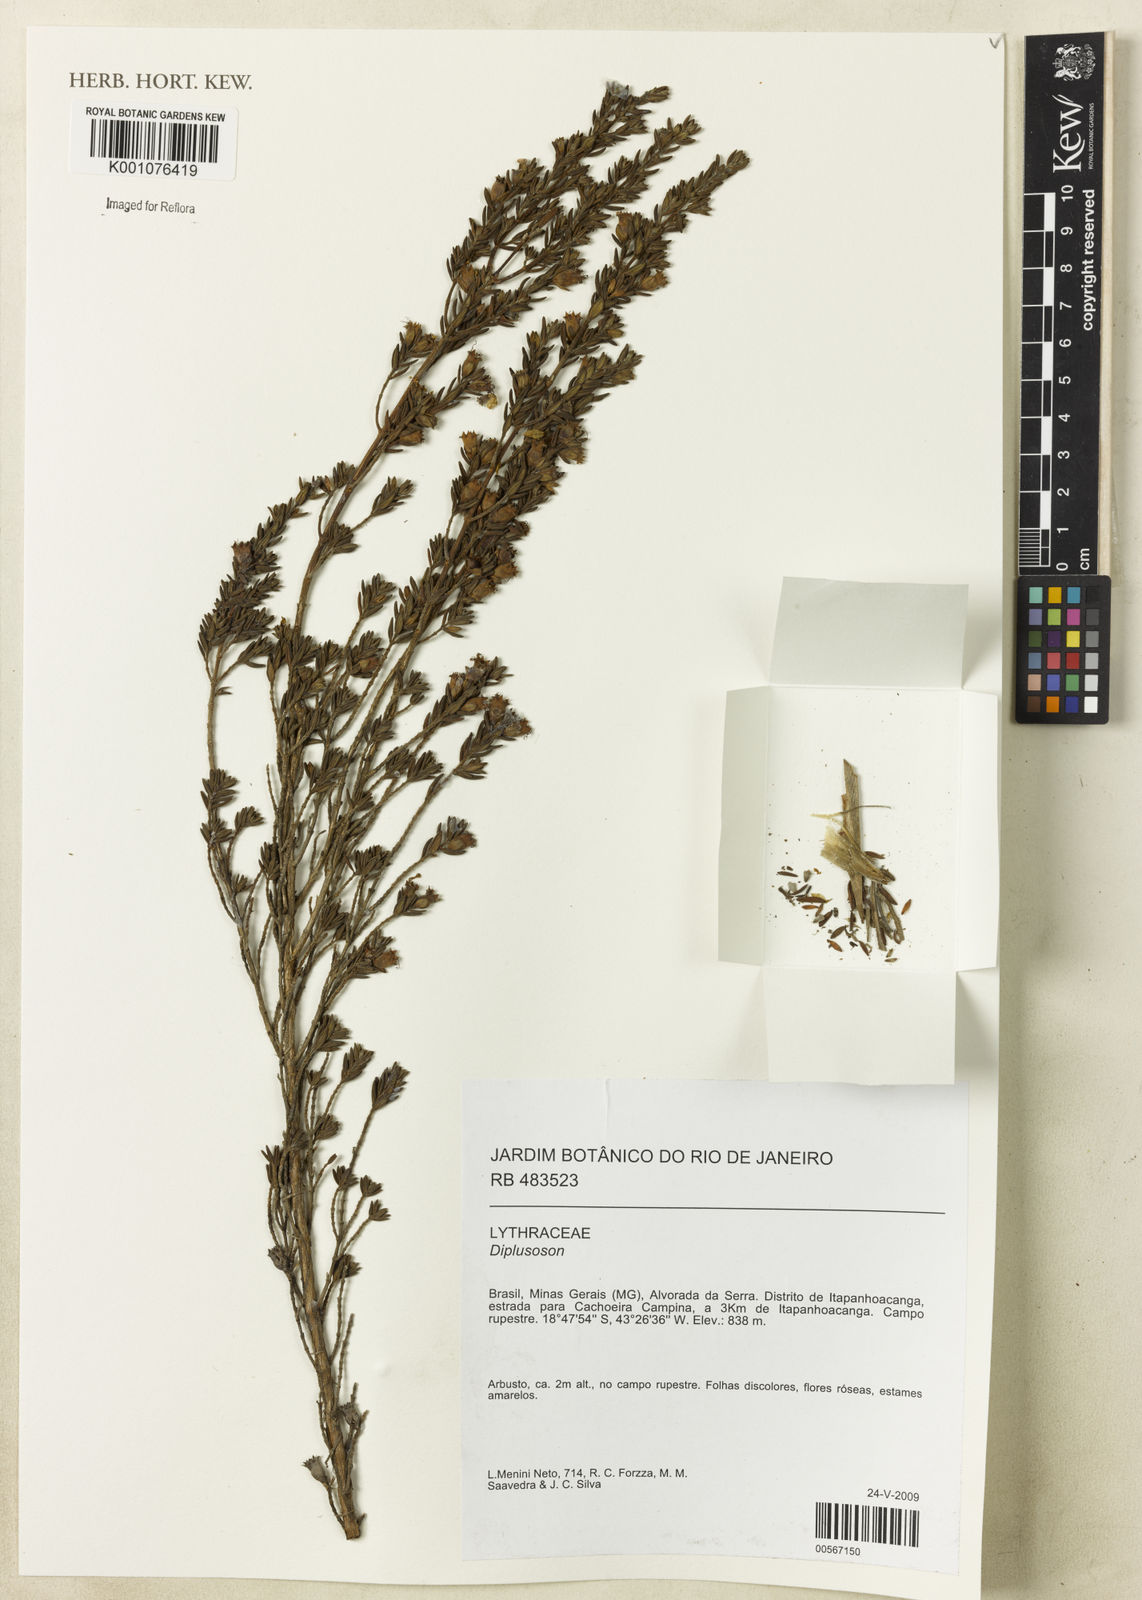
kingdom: Plantae
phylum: Tracheophyta
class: Magnoliopsida
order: Myrtales
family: Lythraceae
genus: Diplusodon
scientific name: Diplusodon
